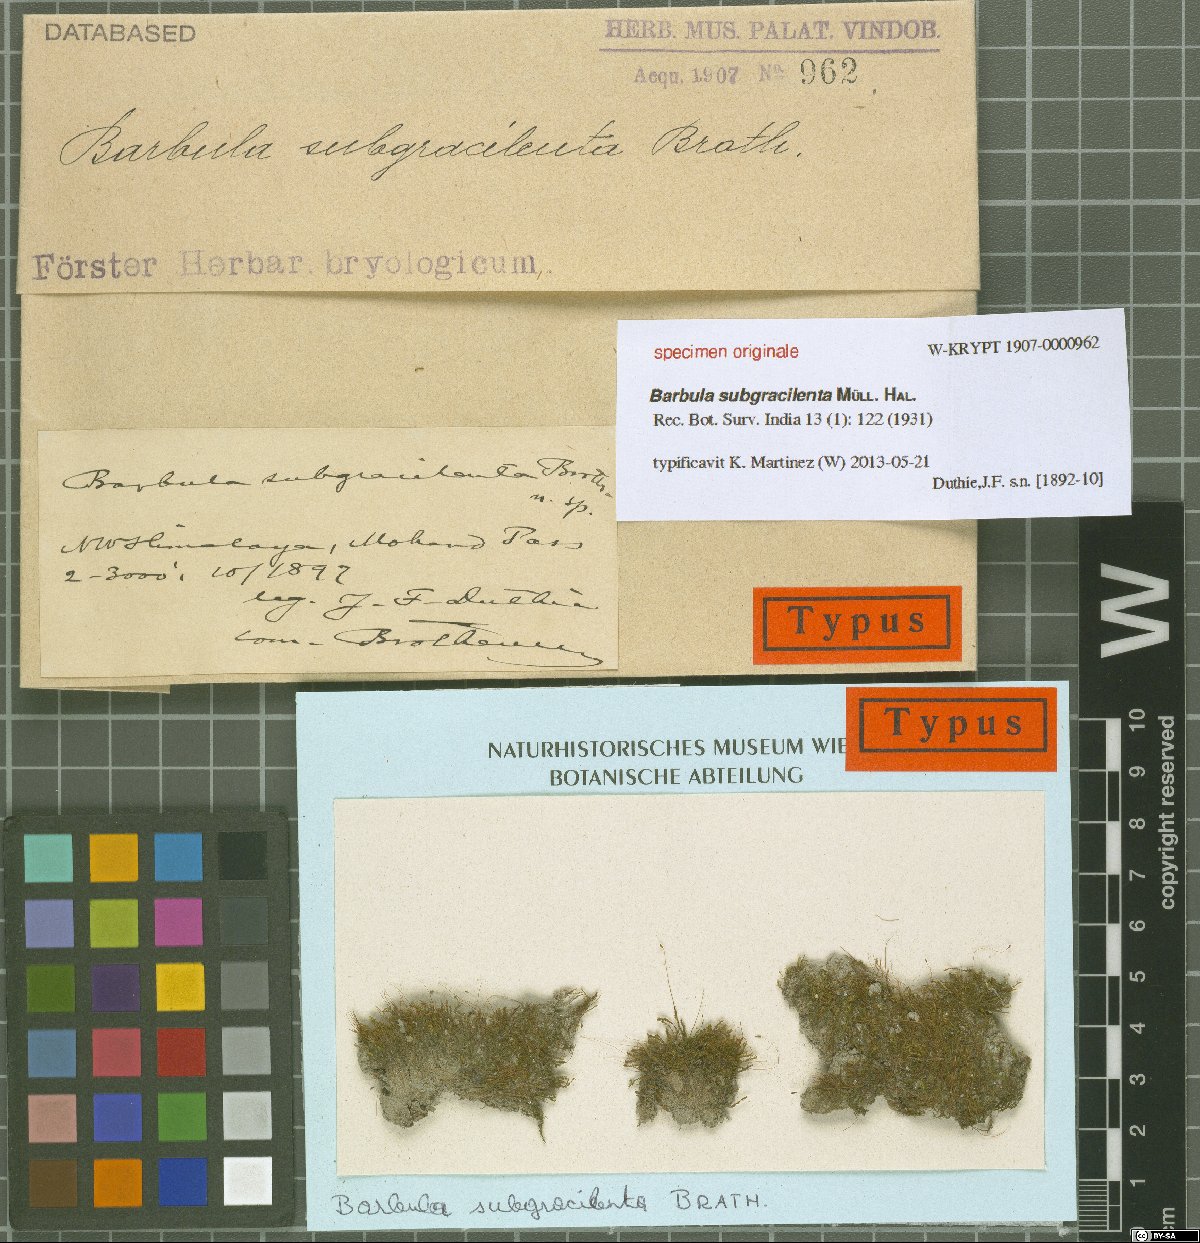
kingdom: Plantae
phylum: Bryophyta
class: Bryopsida
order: Pottiales
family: Pottiaceae
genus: Barbula
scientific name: Barbula
